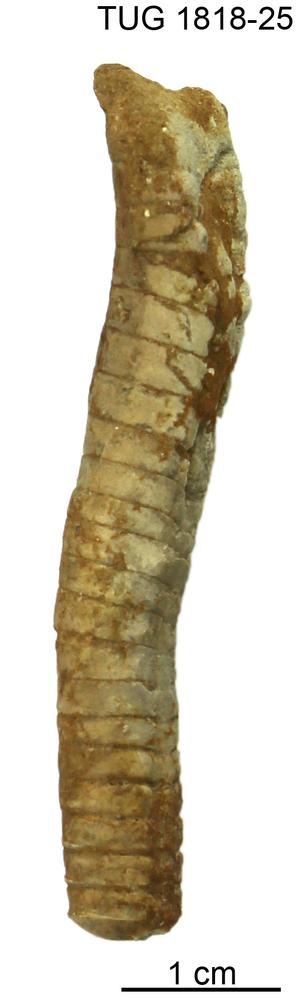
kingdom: Animalia
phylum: Mollusca
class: Cephalopoda
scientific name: Cephalopoda
